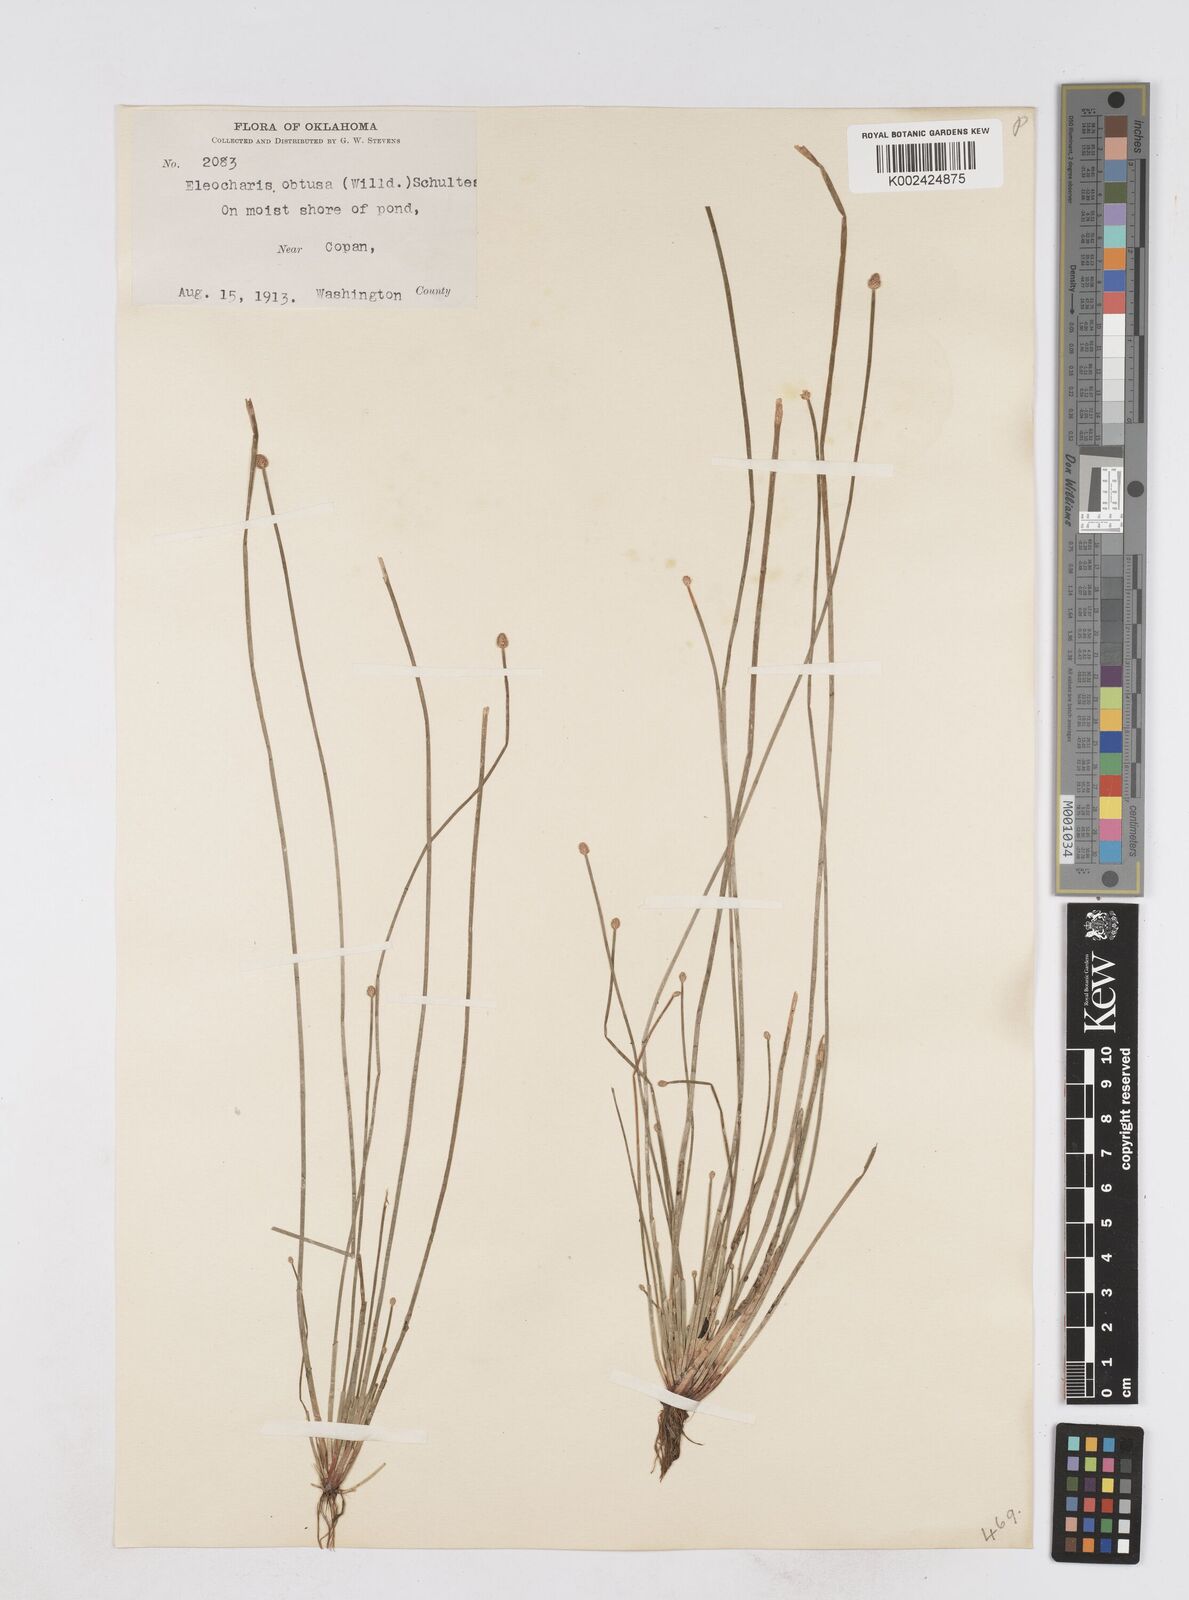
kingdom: Plantae
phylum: Tracheophyta
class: Liliopsida
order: Poales
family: Cyperaceae
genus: Eleocharis
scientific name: Eleocharis obtusa
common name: Blunt spikerush
